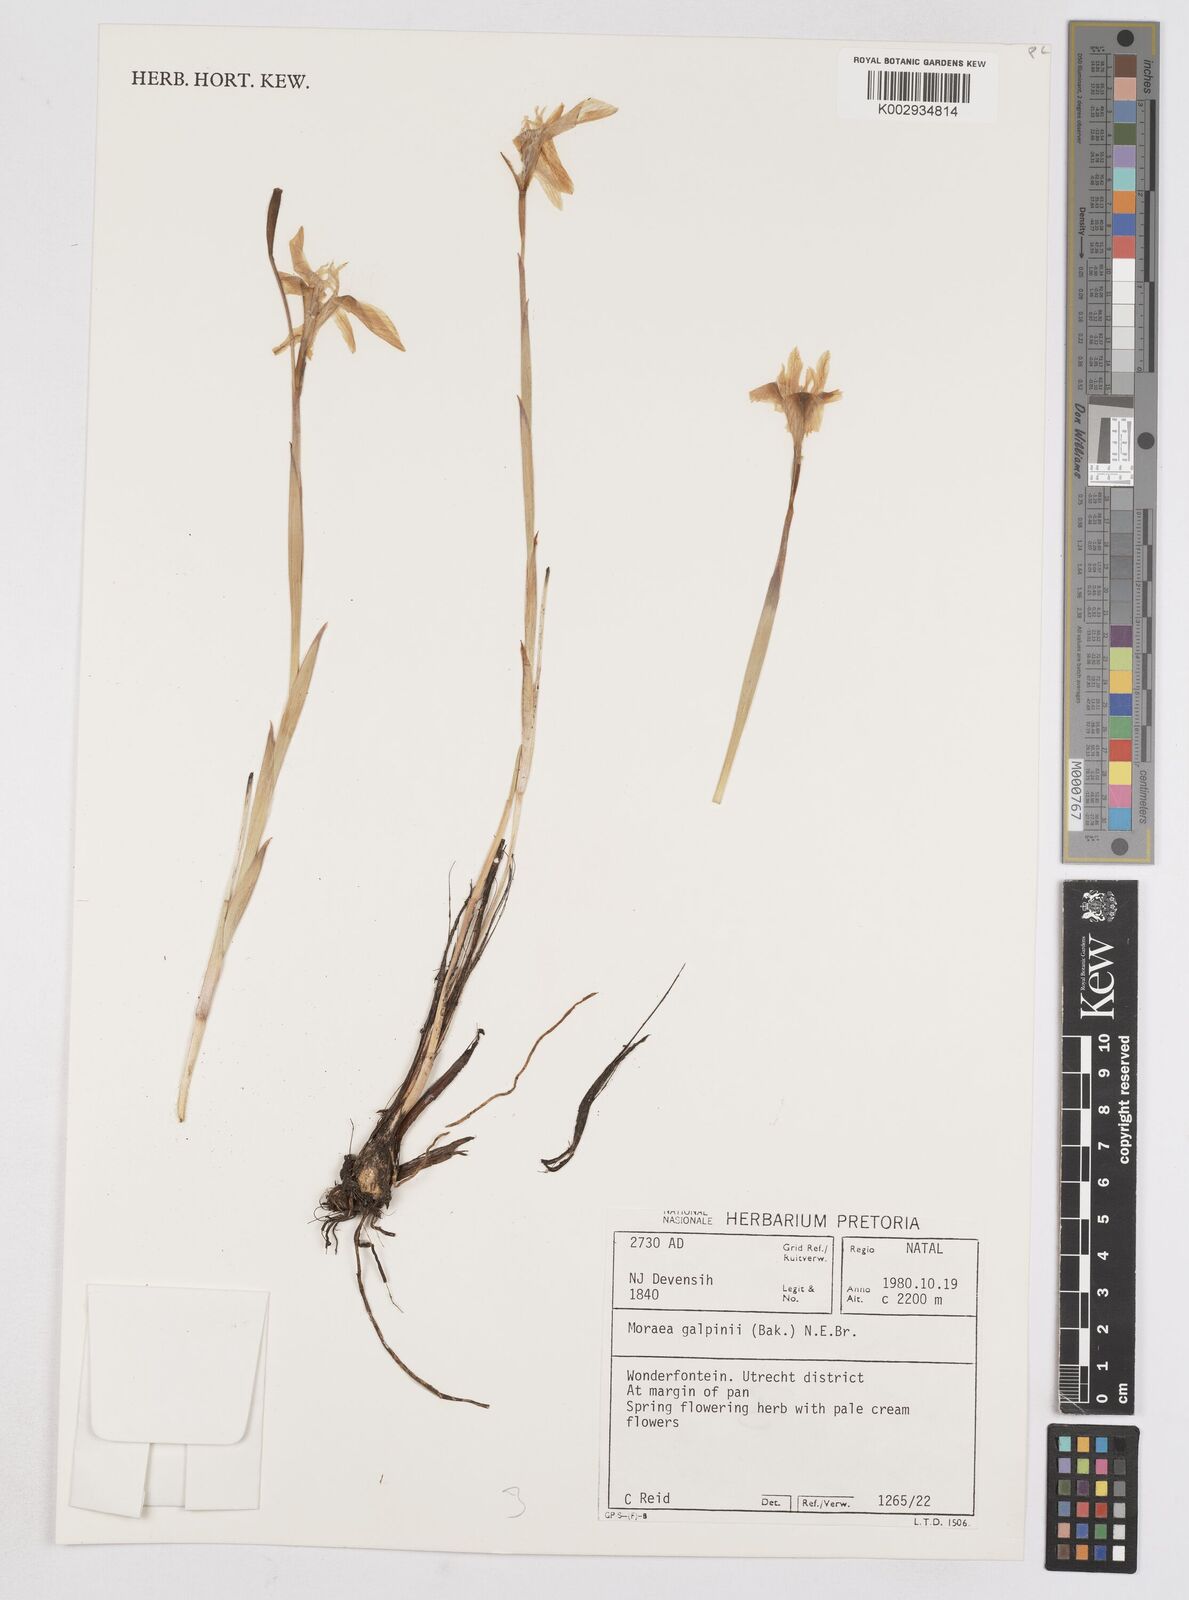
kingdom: Plantae
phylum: Tracheophyta
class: Liliopsida
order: Asparagales
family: Iridaceae
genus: Moraea
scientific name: Moraea galpinii
